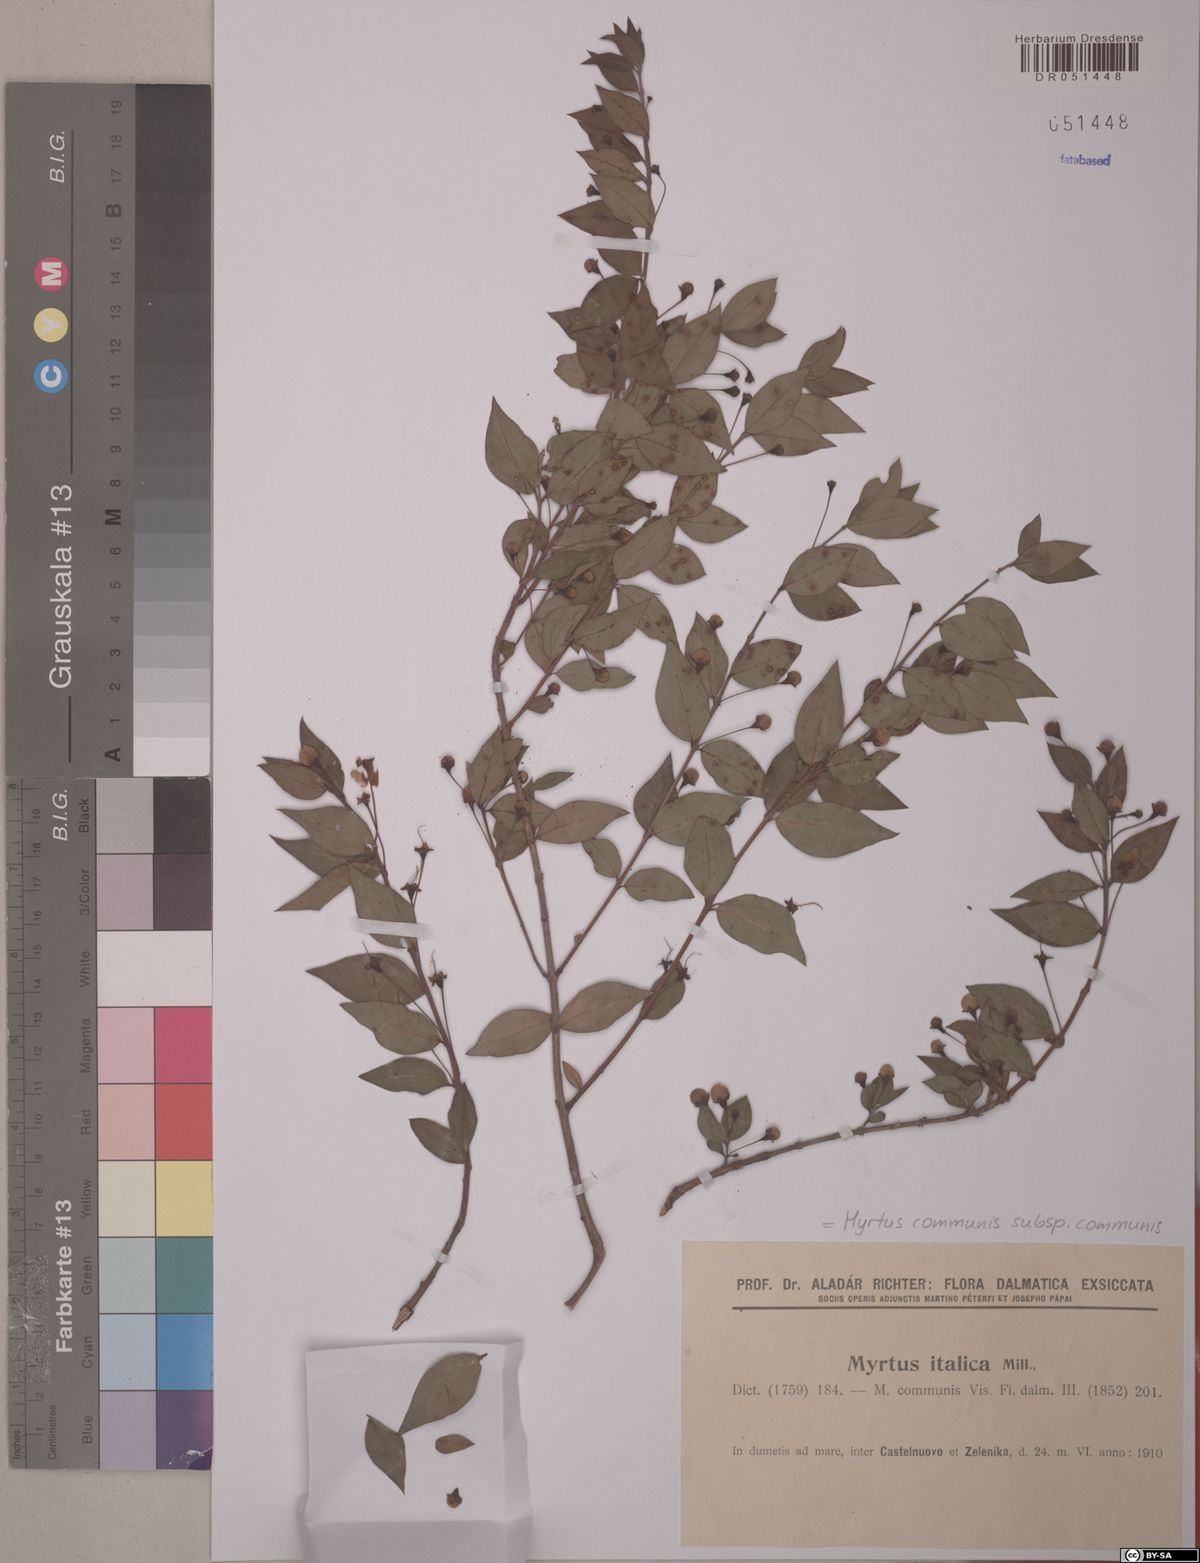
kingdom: Plantae
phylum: Tracheophyta
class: Magnoliopsida
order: Myrtales
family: Myrtaceae
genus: Myrtus
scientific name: Myrtus communis
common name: Myrtle
